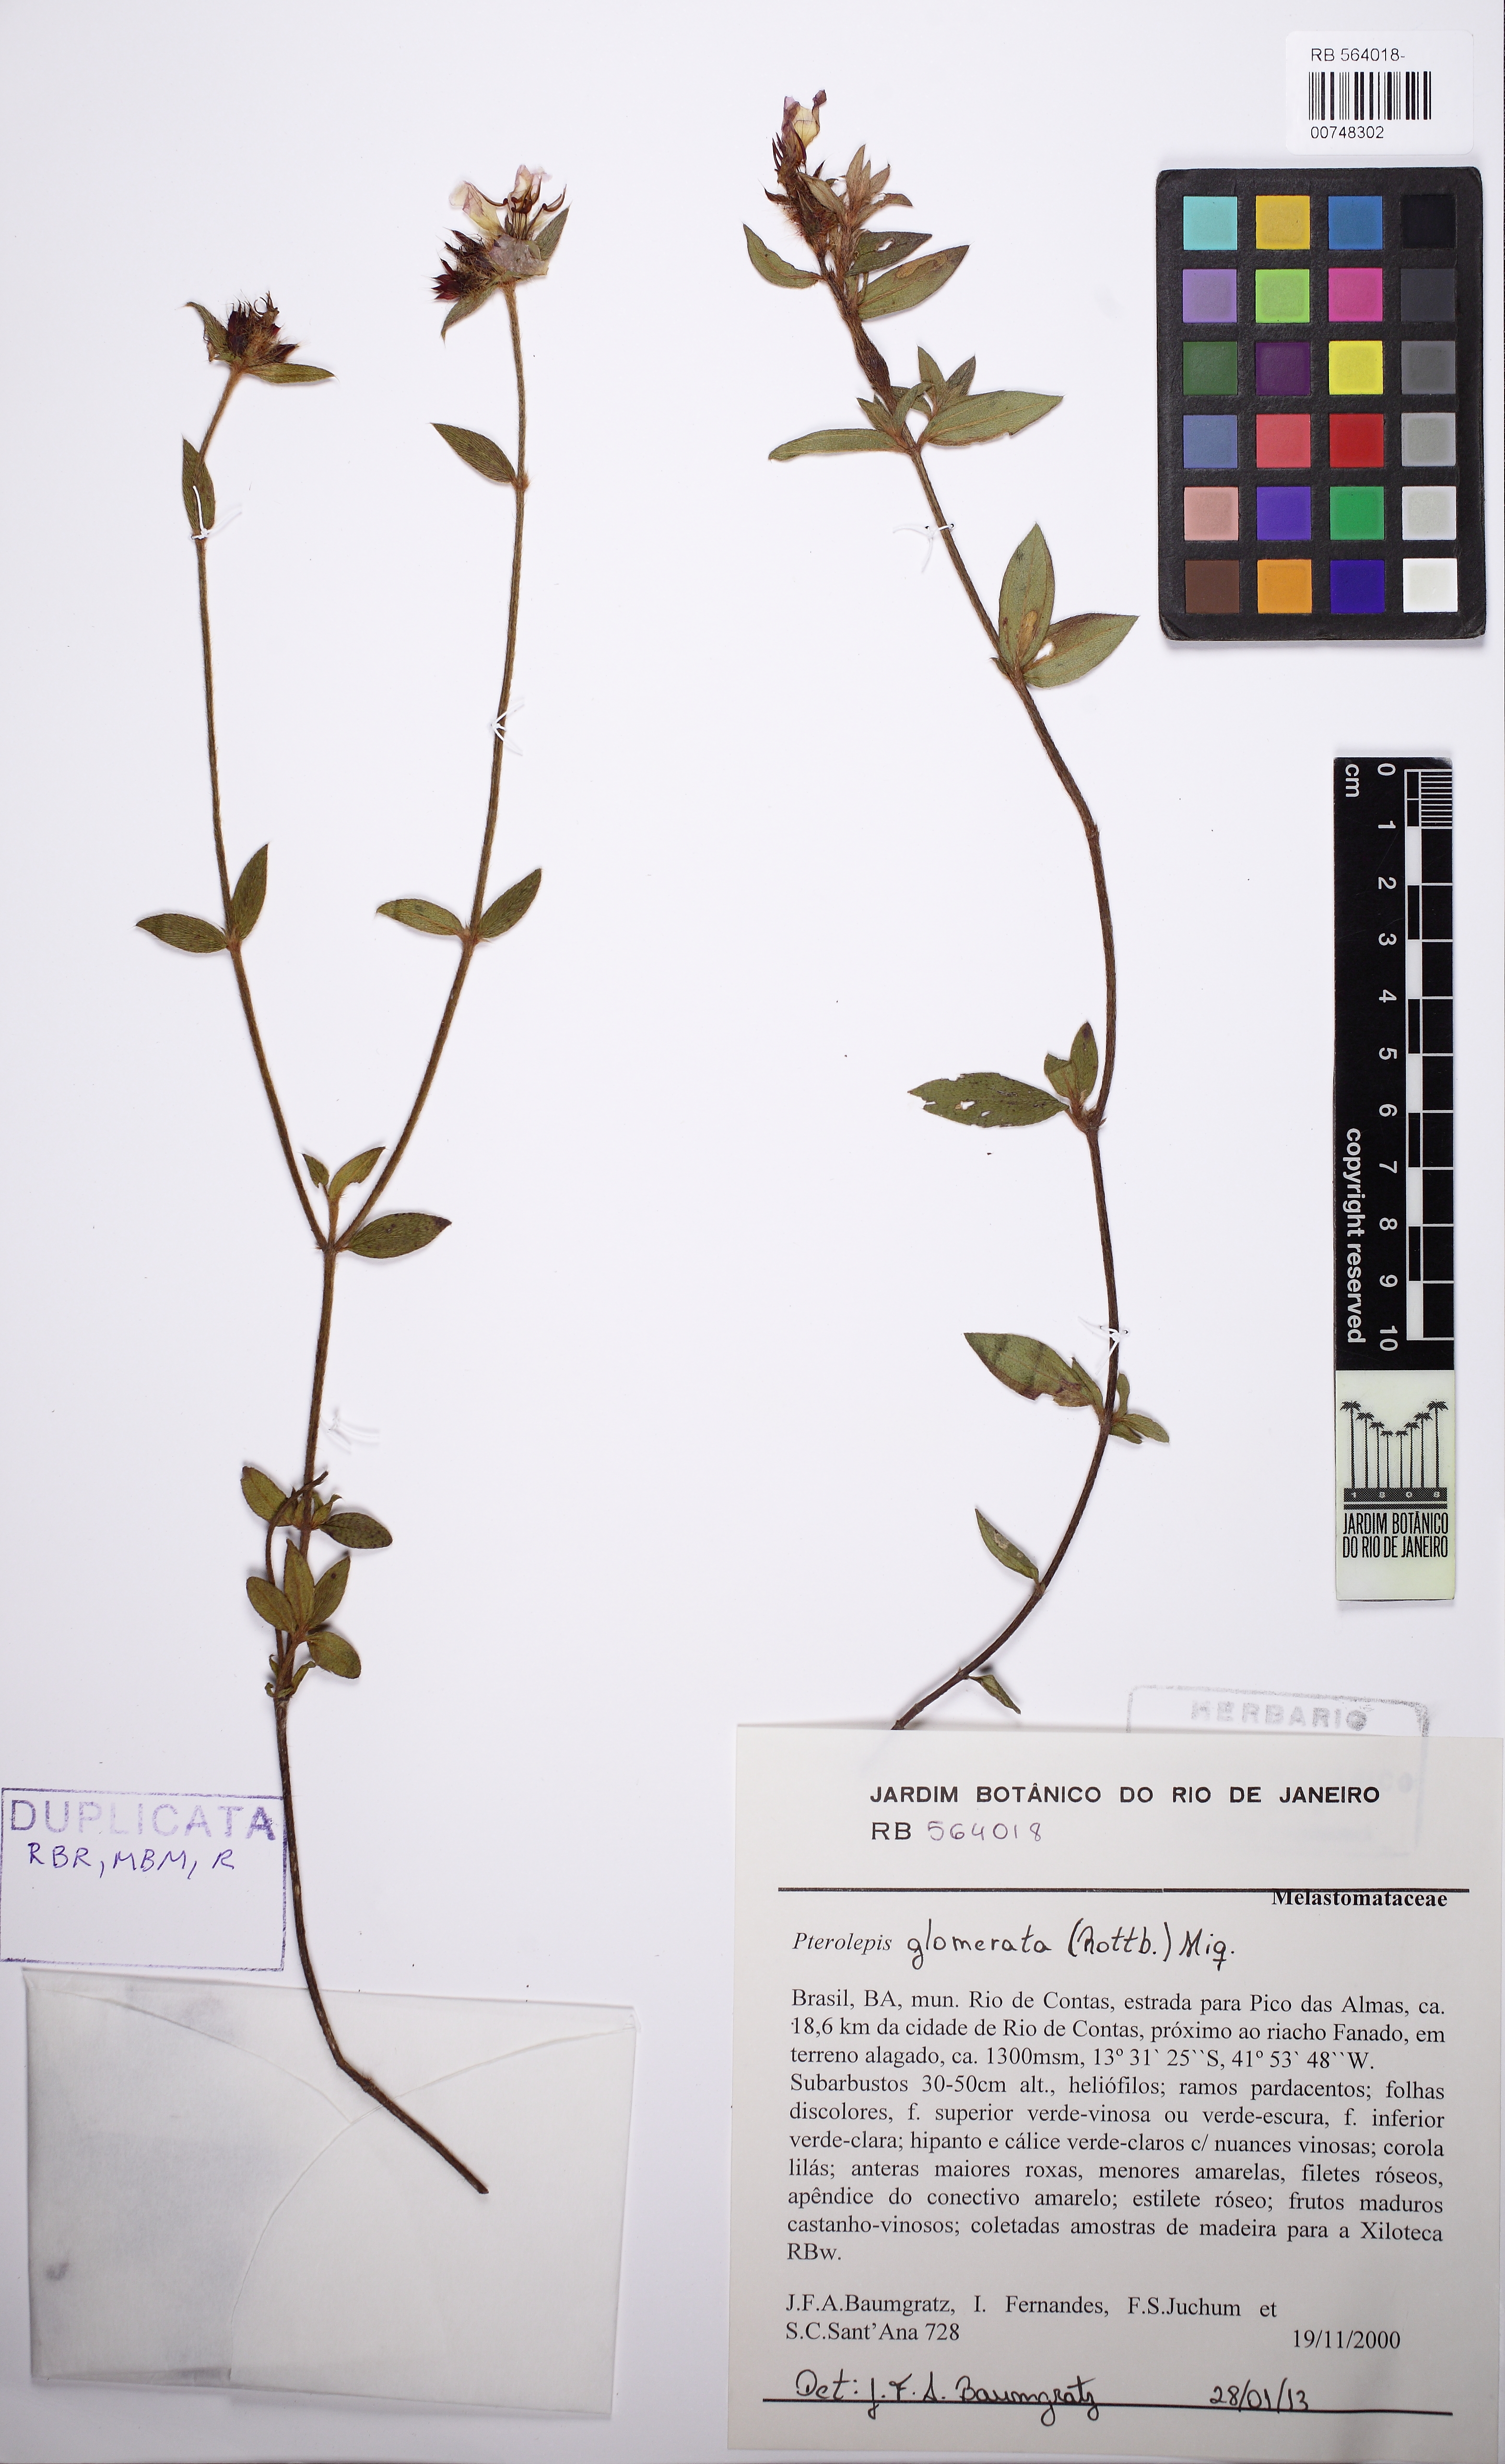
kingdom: Plantae
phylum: Tracheophyta
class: Magnoliopsida
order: Myrtales
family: Melastomataceae
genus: Pterolepis
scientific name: Pterolepis glomerata
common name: False meadowbeauty
